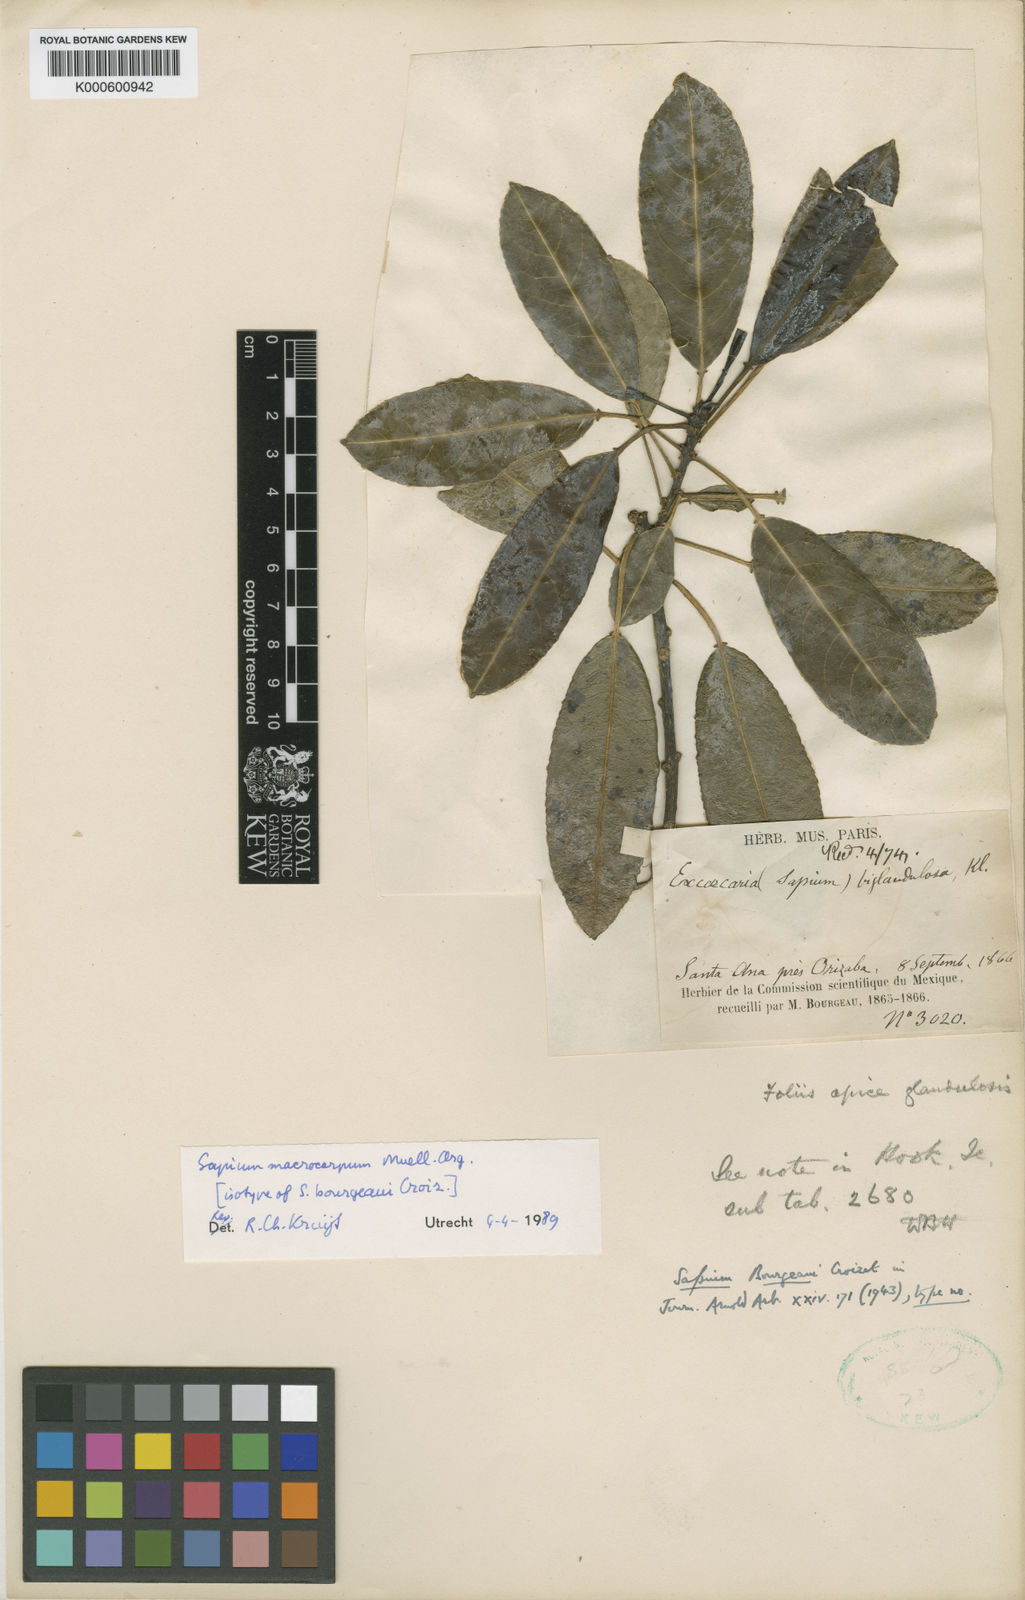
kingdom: Plantae
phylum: Tracheophyta
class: Magnoliopsida
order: Malpighiales
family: Euphorbiaceae
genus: Sapium
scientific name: Sapium glandulosum
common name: Milktree
